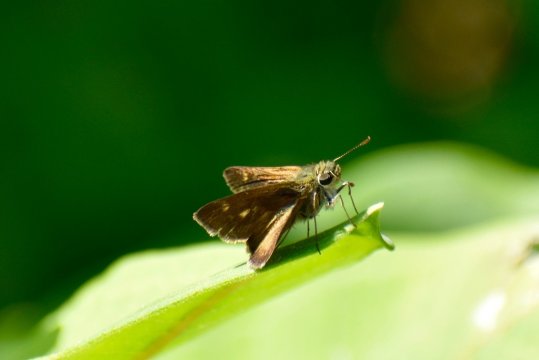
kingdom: Animalia
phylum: Arthropoda
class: Insecta
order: Lepidoptera
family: Hesperiidae
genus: Polites
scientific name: Polites egeremet
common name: Northern Broken-Dash
